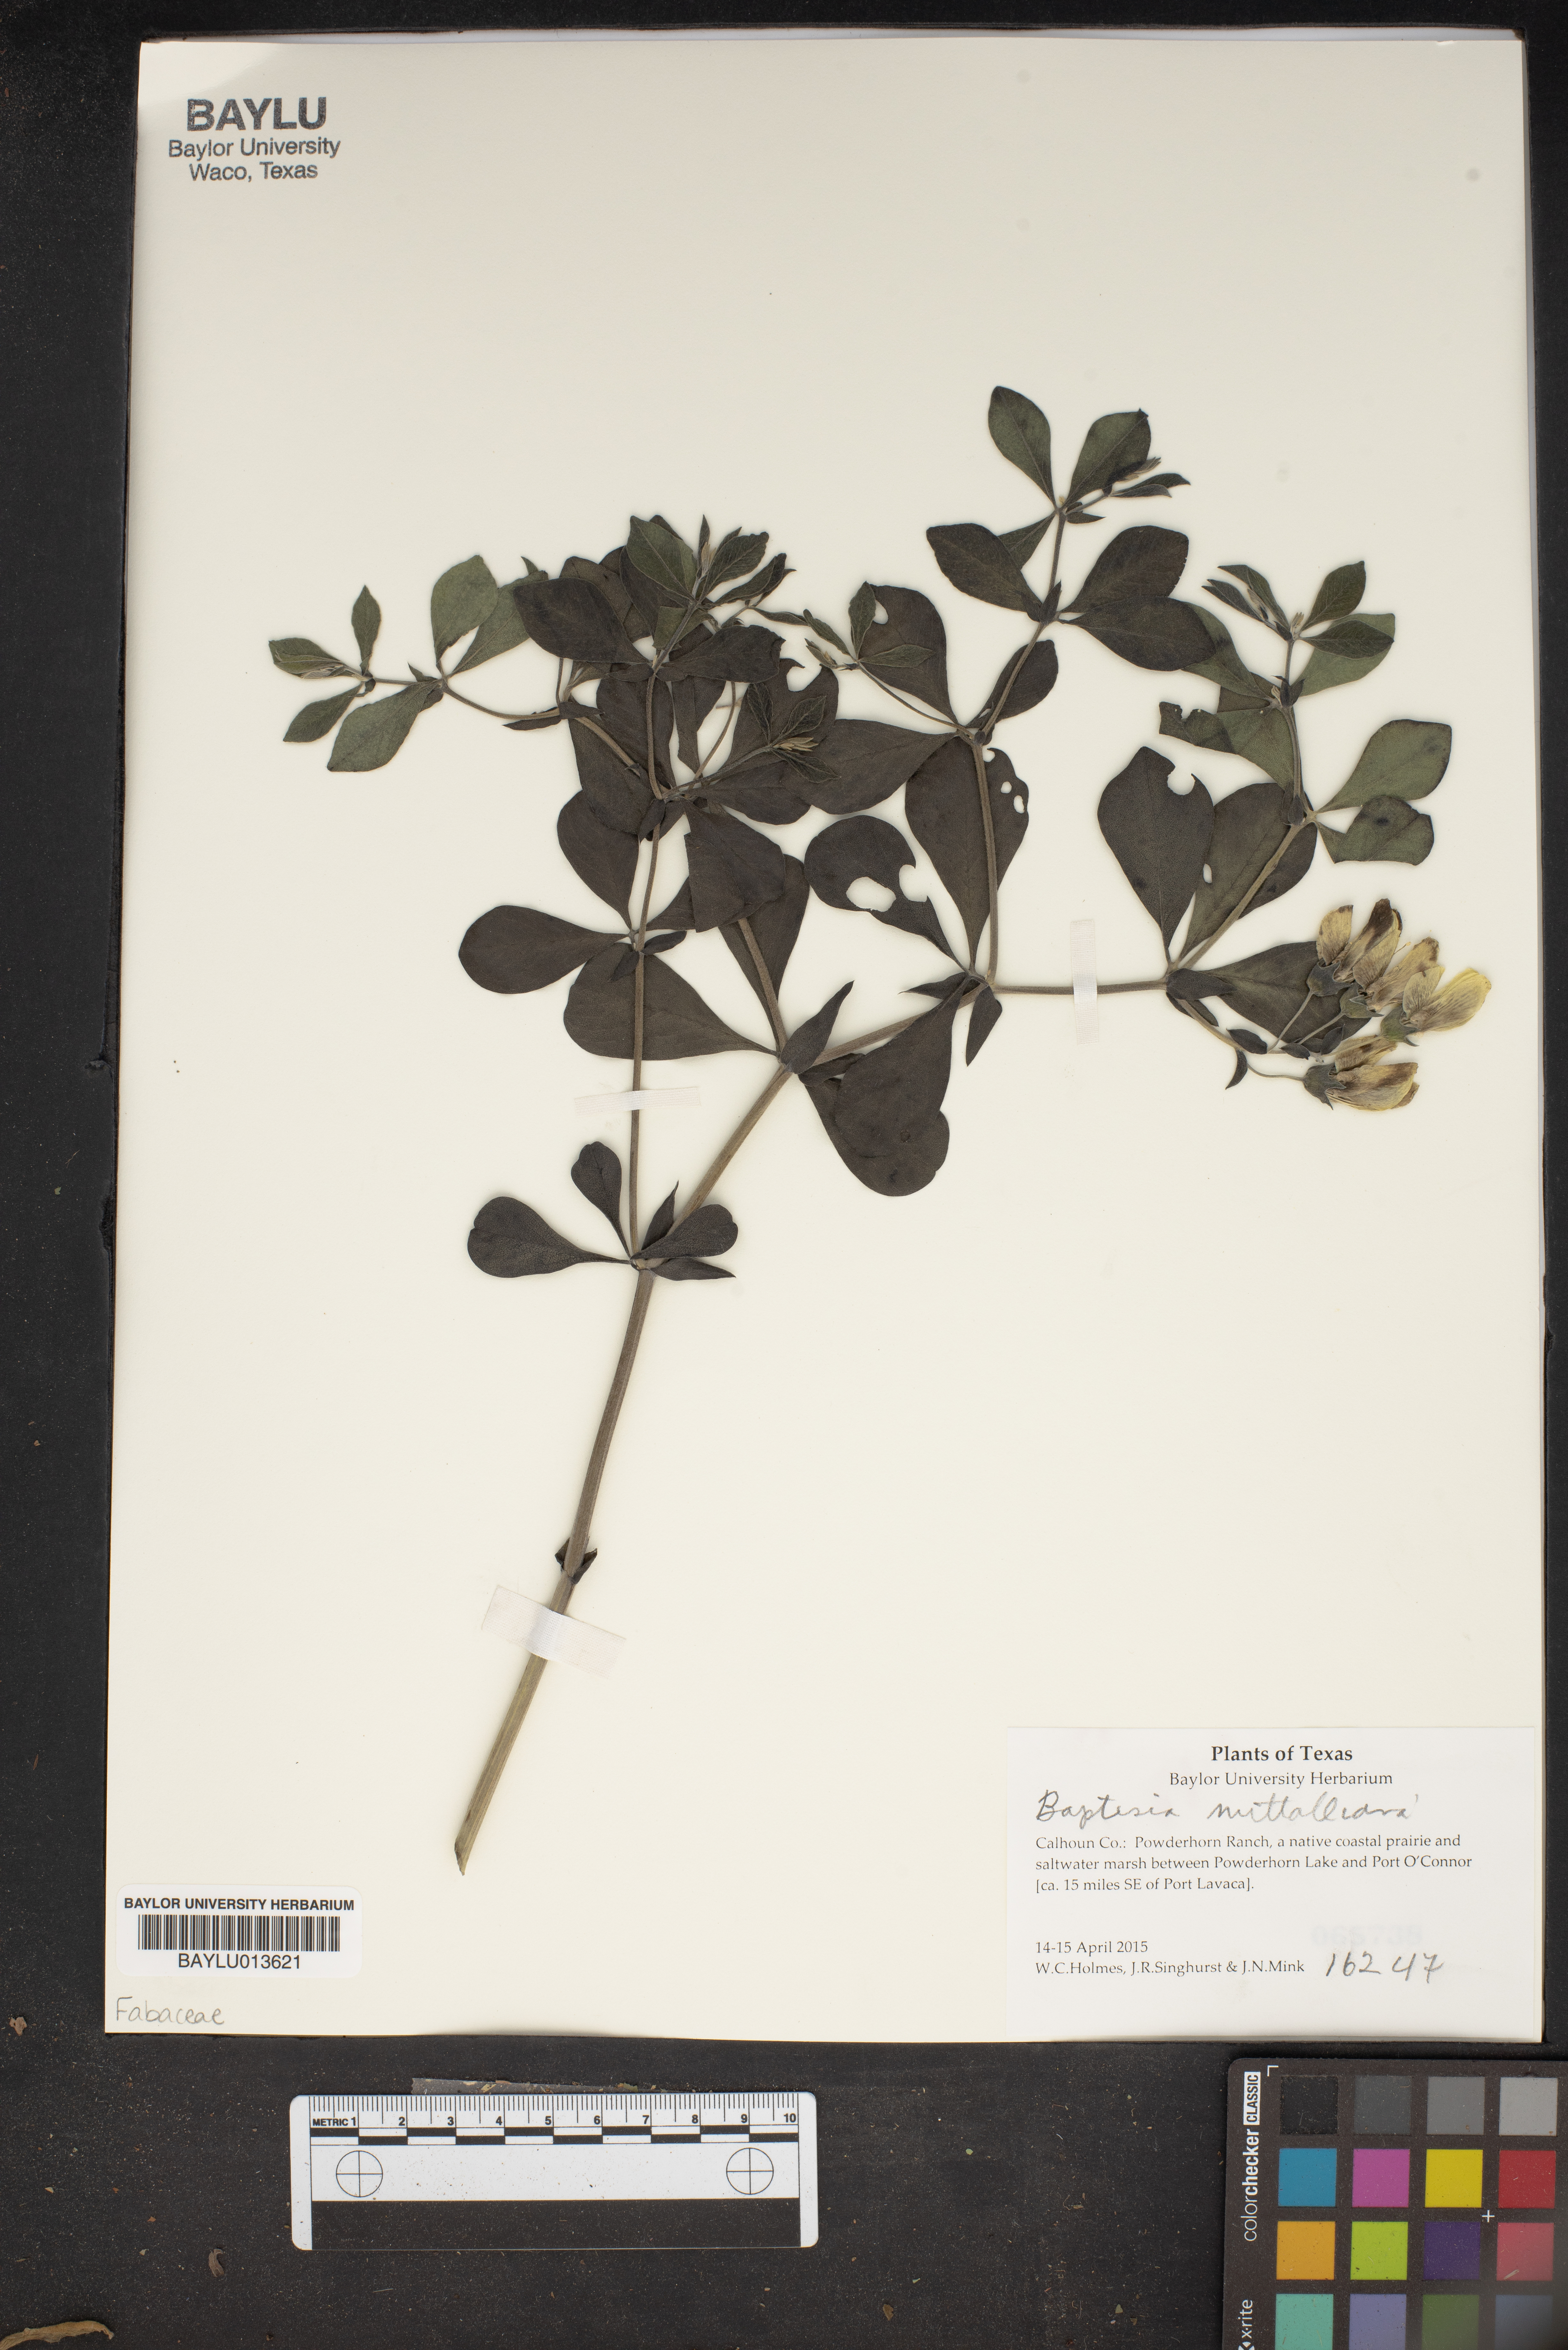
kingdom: Plantae
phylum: Tracheophyta
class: Magnoliopsida
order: Fabales
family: Fabaceae
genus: Baptisia
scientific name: Baptisia nuttalliana
